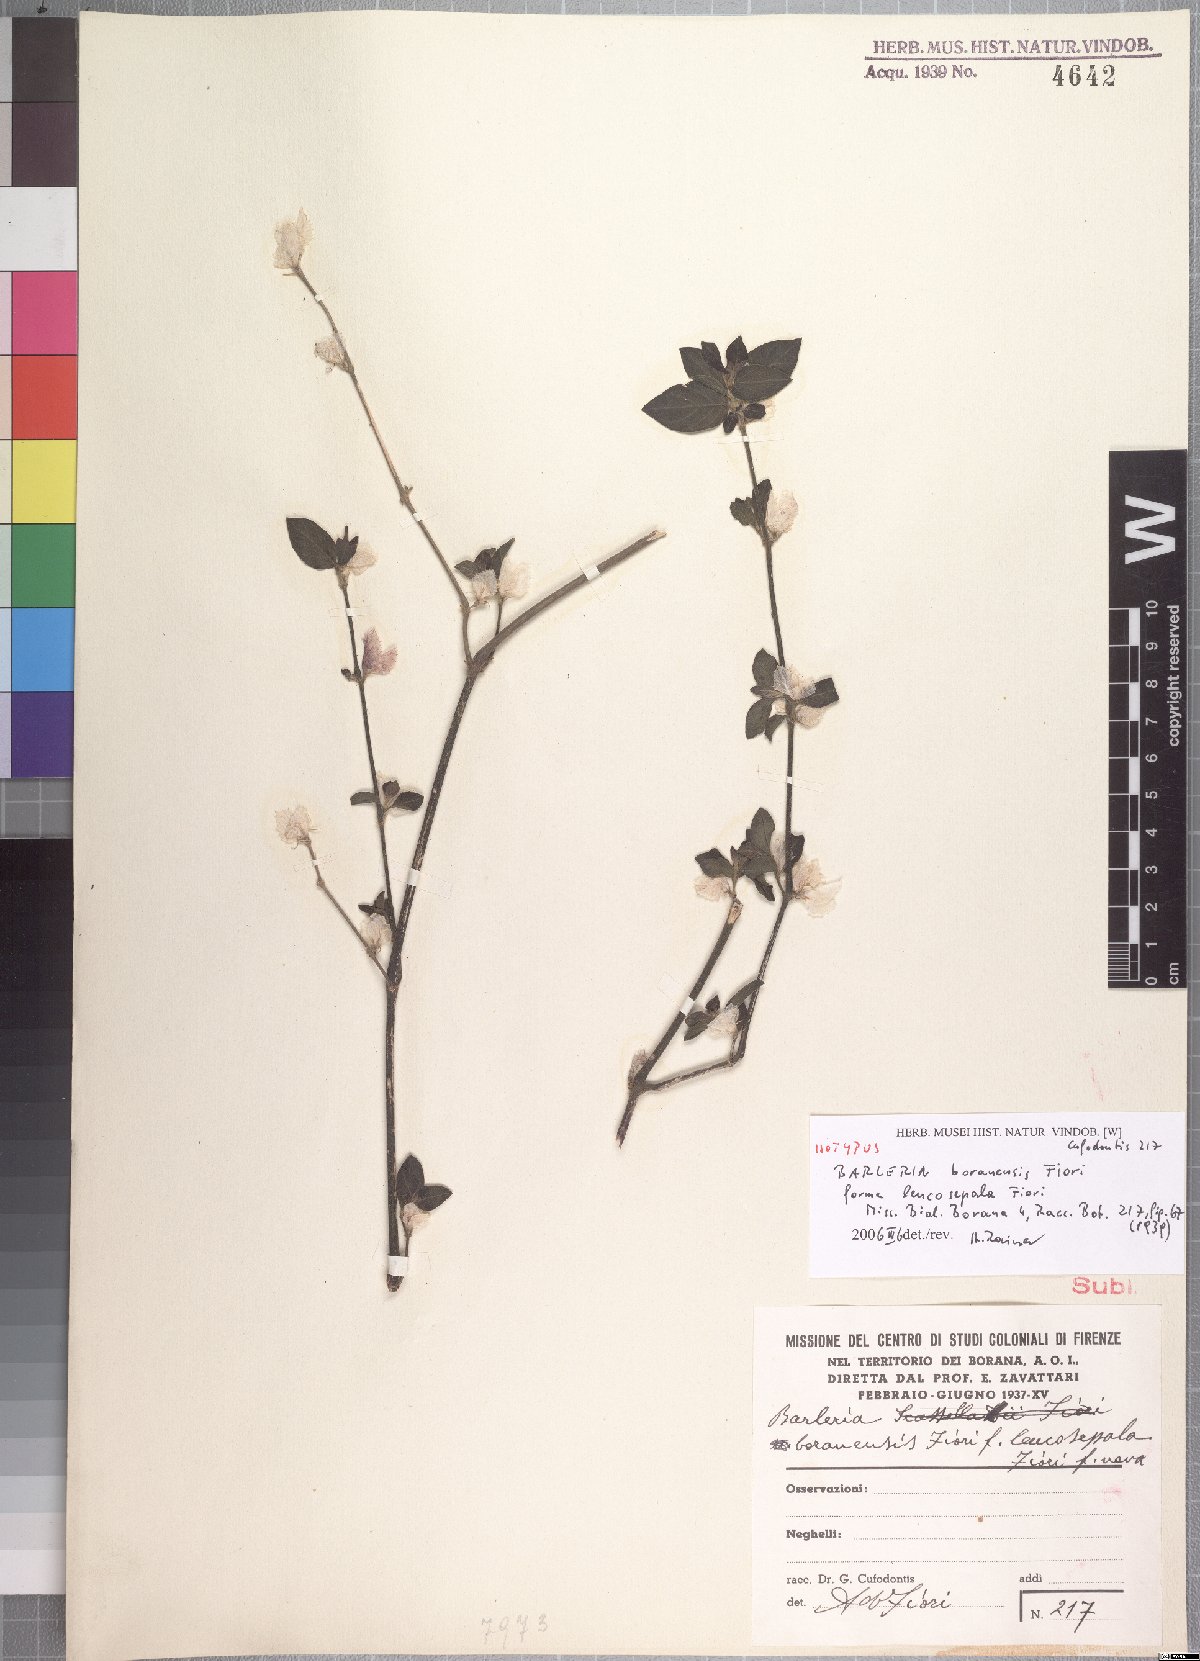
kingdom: Plantae
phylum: Tracheophyta
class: Magnoliopsida
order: Lamiales
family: Acanthaceae
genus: Barleria
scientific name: Barleria boranensis
